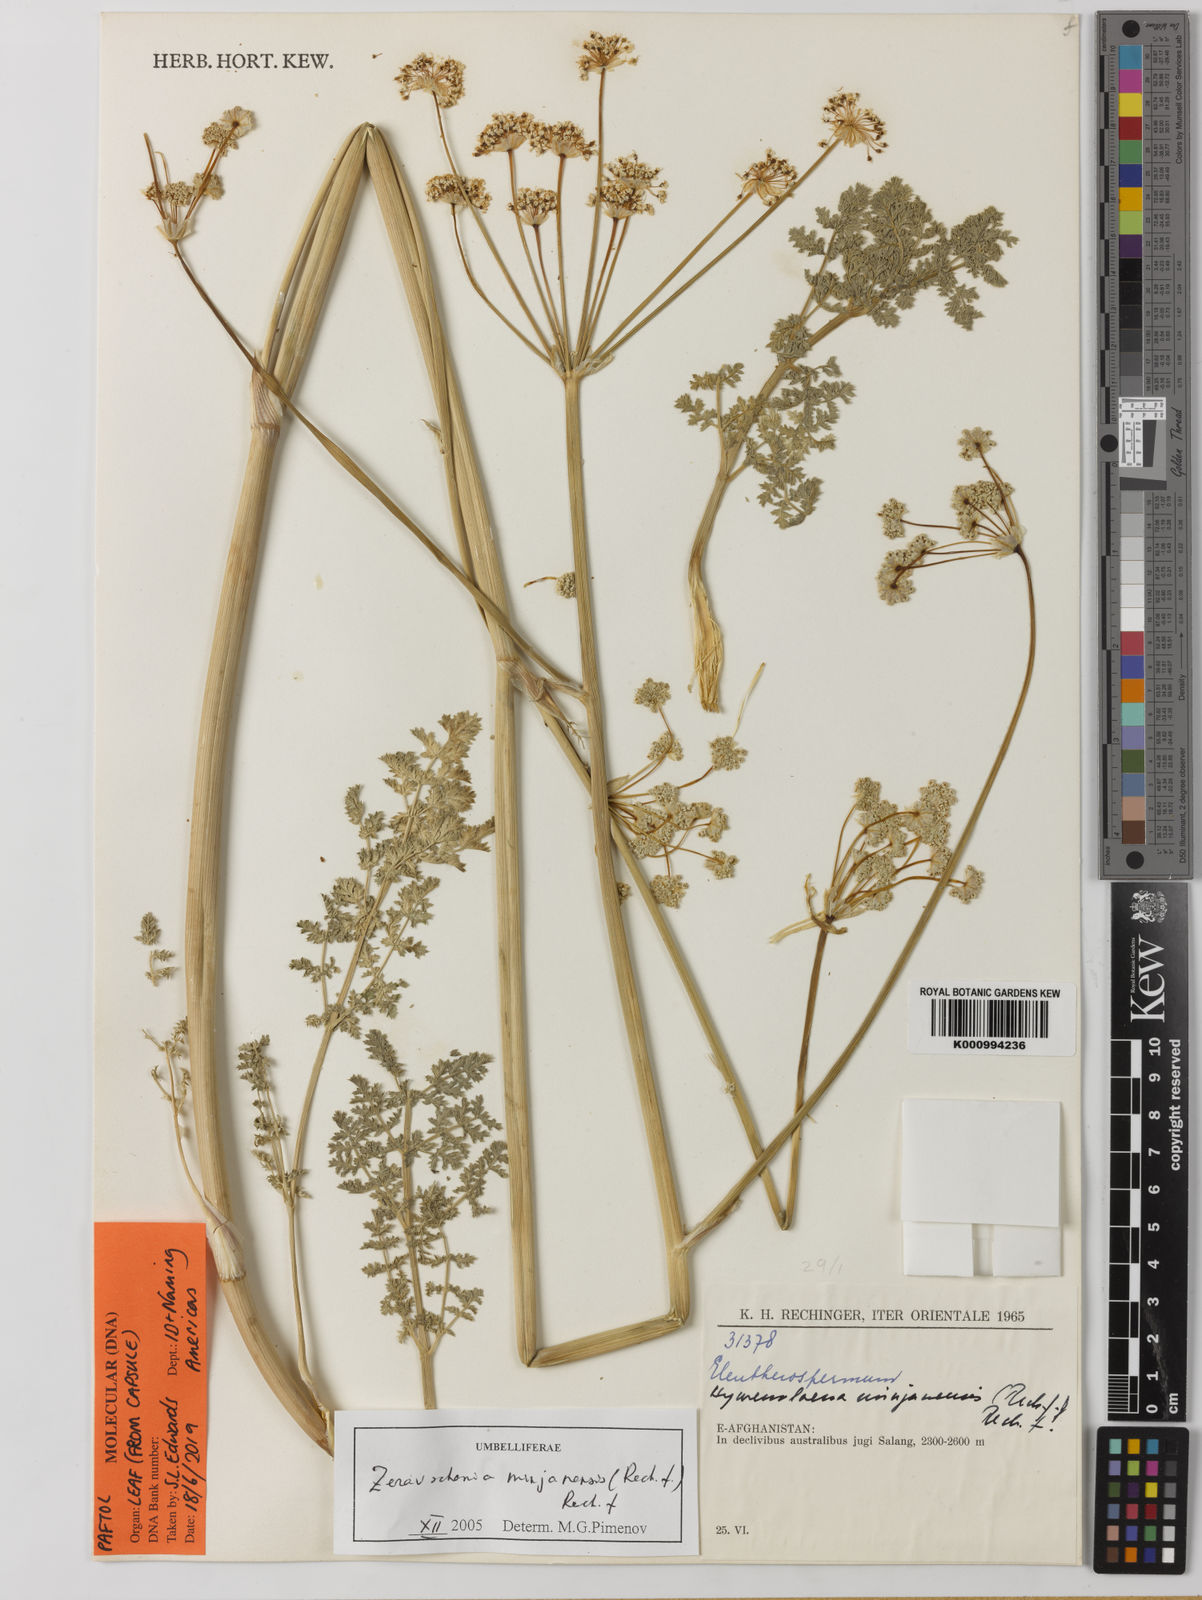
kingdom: Plantae
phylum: Tracheophyta
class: Magnoliopsida
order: Apiales
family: Apiaceae
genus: Zeravschania
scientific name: Zeravschania minjanensis
